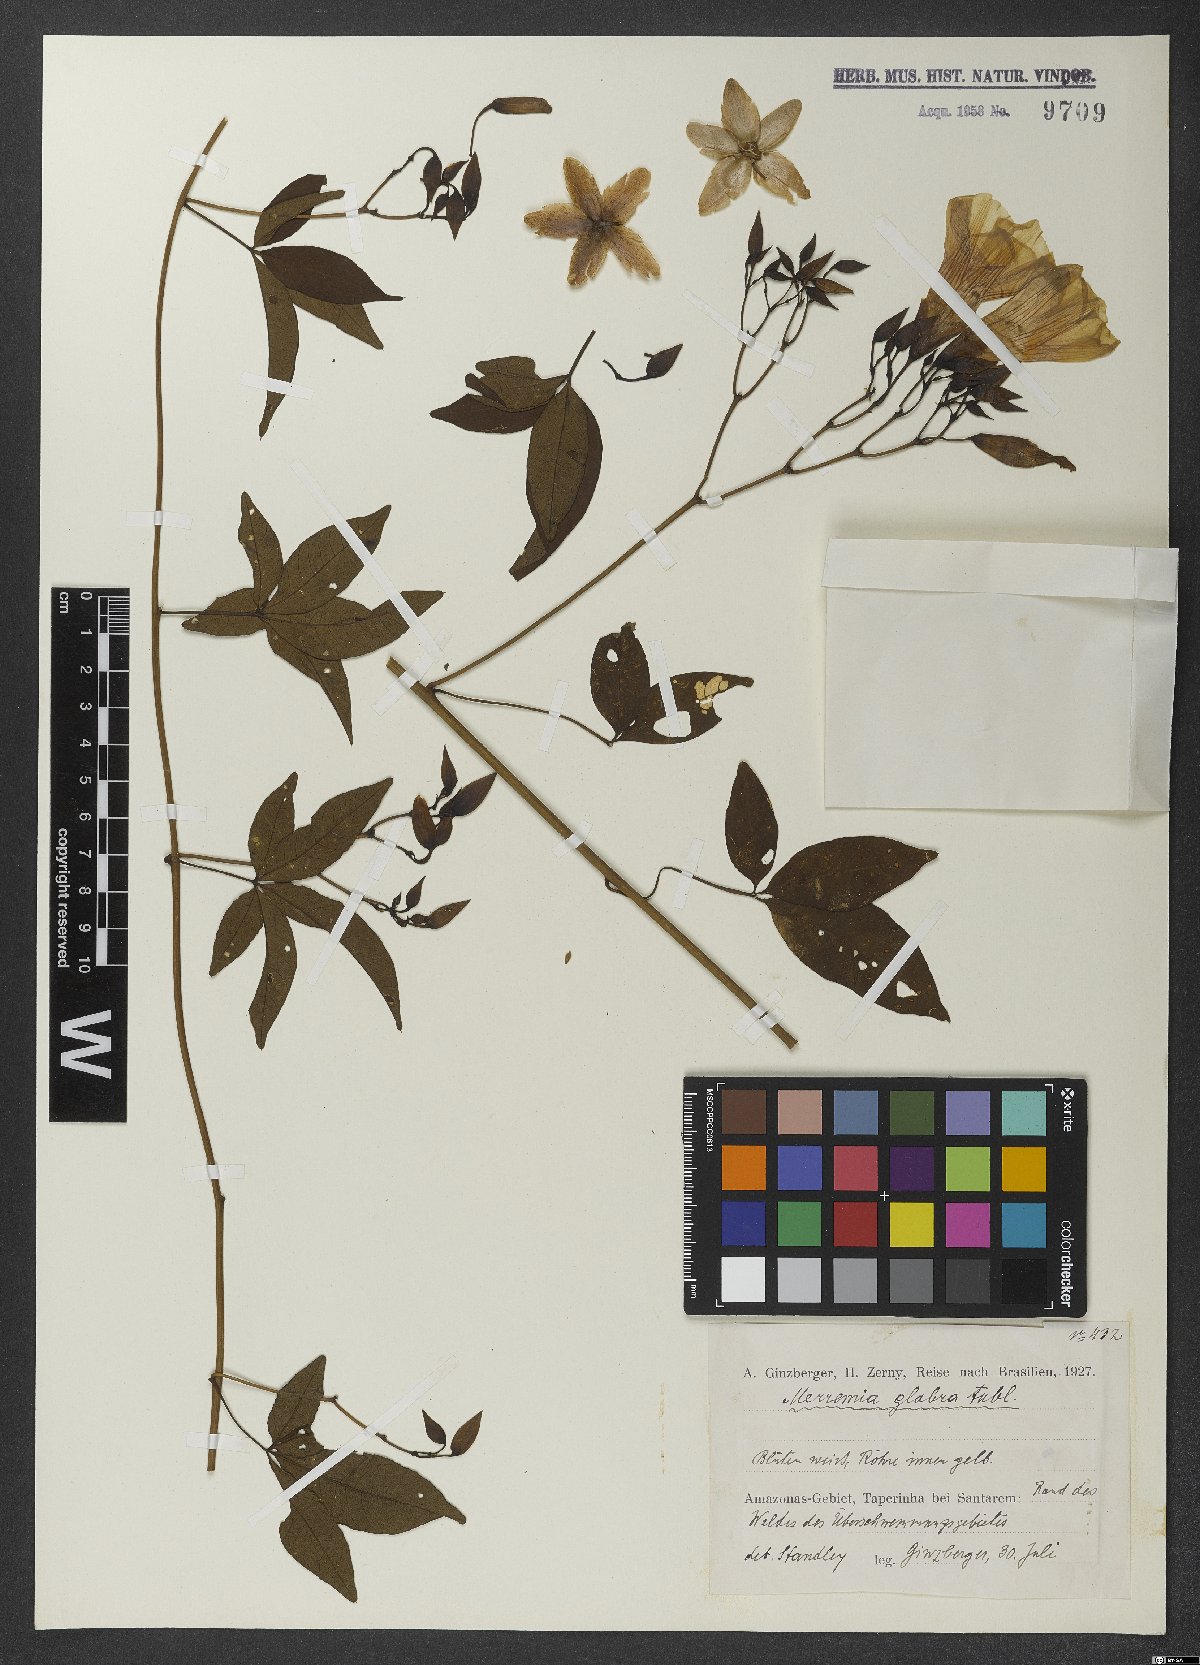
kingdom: Plantae
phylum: Tracheophyta
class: Magnoliopsida
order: Solanales
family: Convolvulaceae
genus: Distimake
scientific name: Distimake macrocalyx
